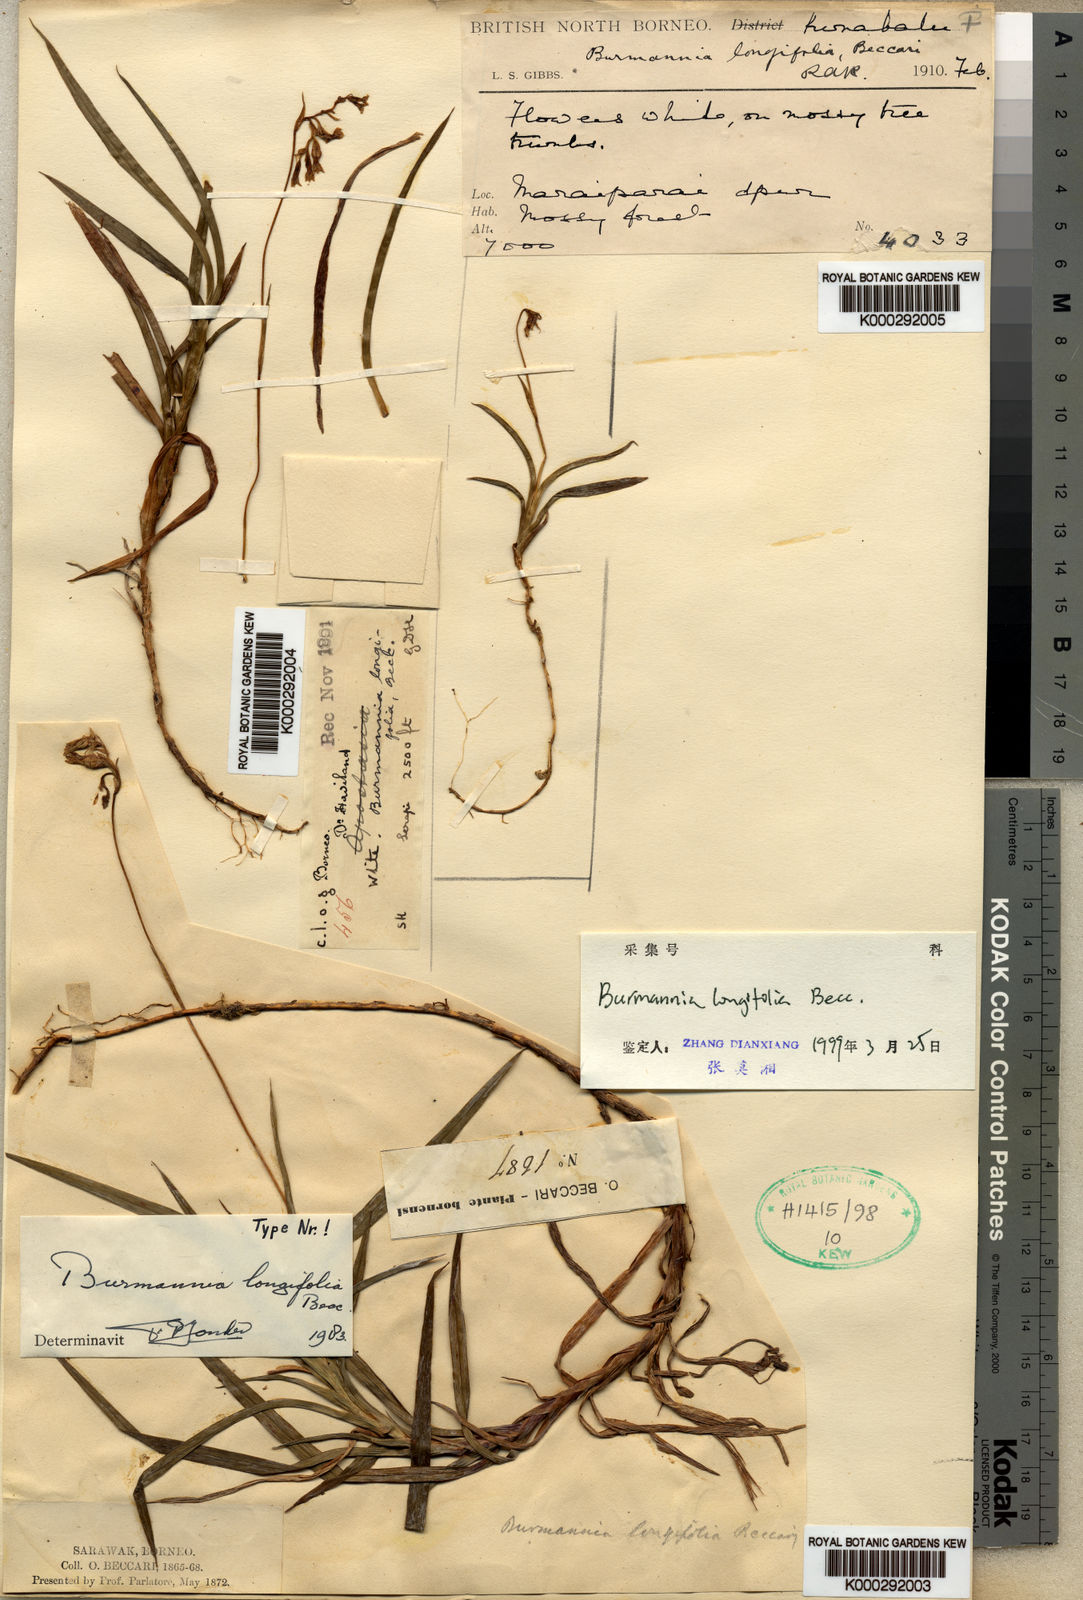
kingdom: Plantae
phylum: Tracheophyta
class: Liliopsida
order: Dioscoreales
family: Burmanniaceae
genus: Burmannia
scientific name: Burmannia longifolia
